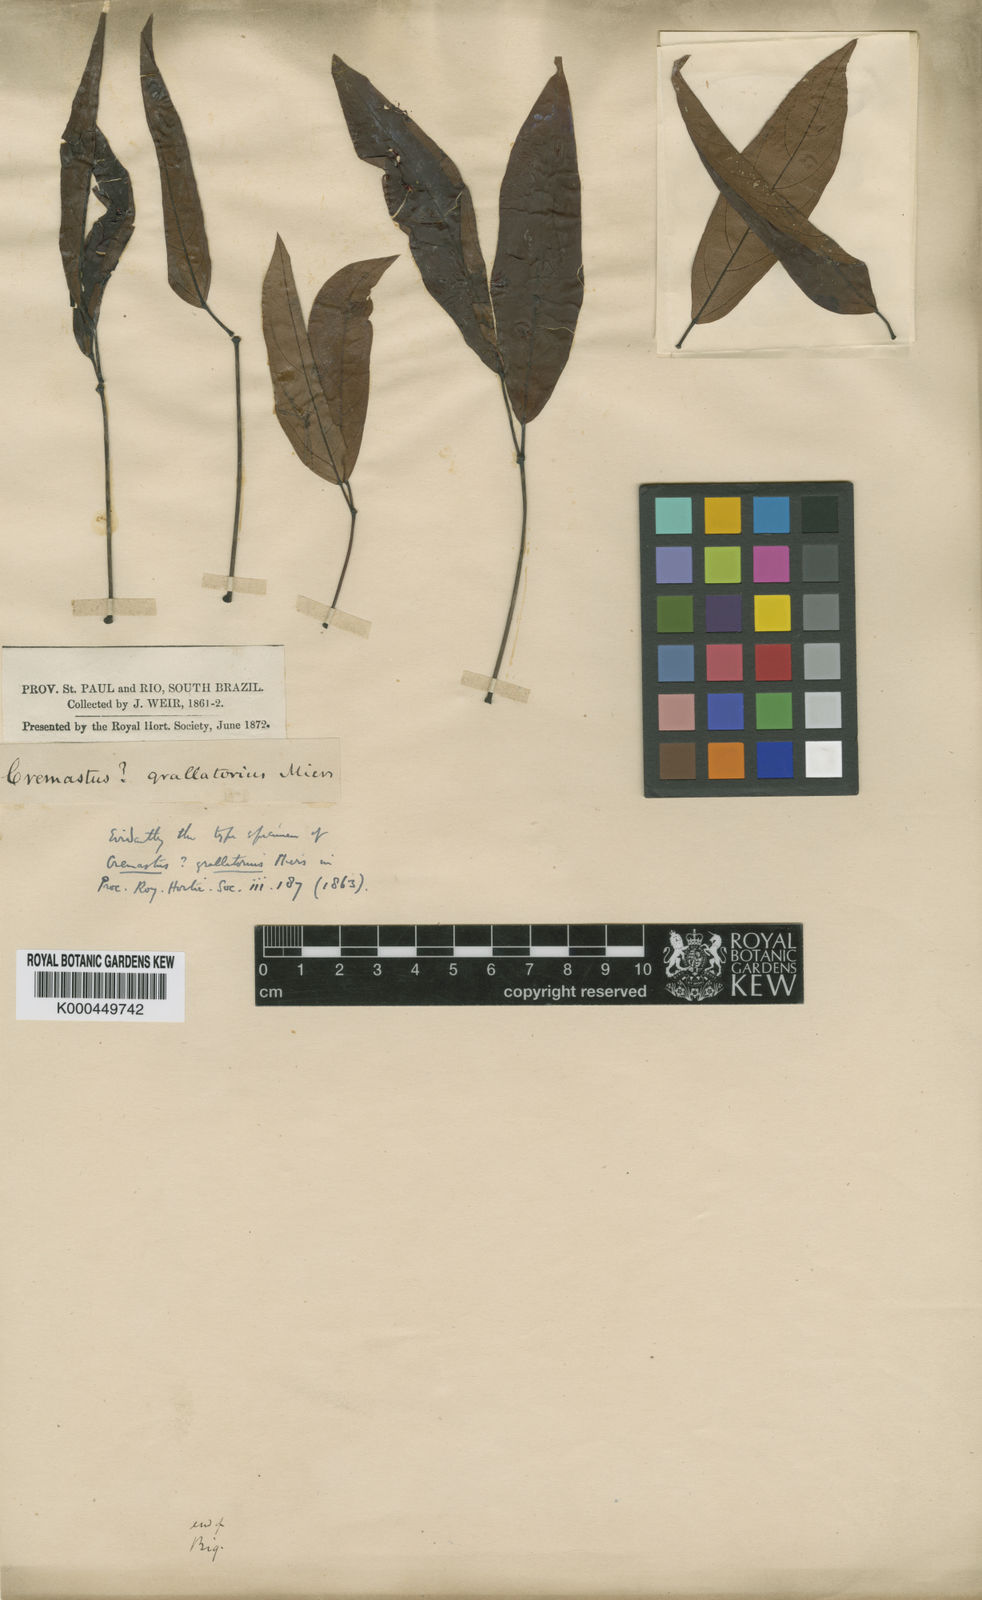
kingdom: Plantae
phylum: Tracheophyta
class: Magnoliopsida
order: Lamiales
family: Bignoniaceae
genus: Xylophragma
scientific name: Xylophragma
